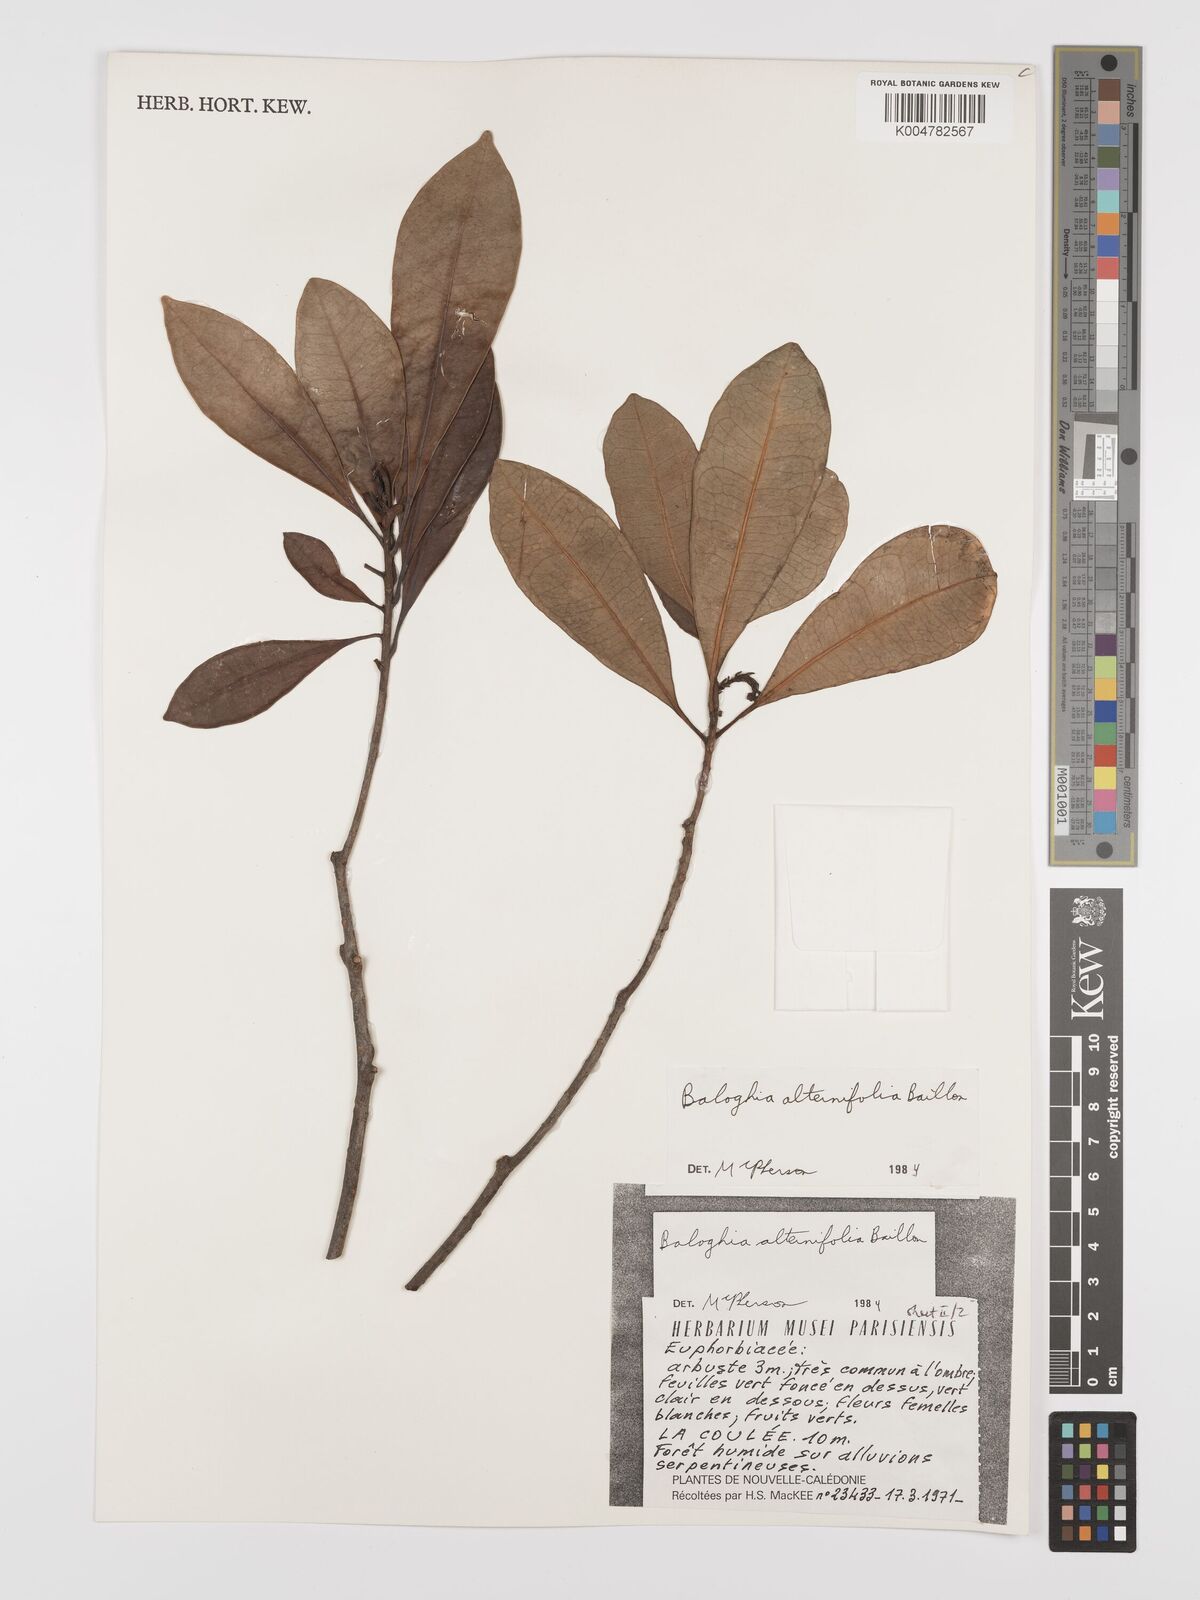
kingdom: Plantae
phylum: Tracheophyta
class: Magnoliopsida
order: Malpighiales
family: Euphorbiaceae
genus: Baloghia
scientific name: Baloghia alternifolia
